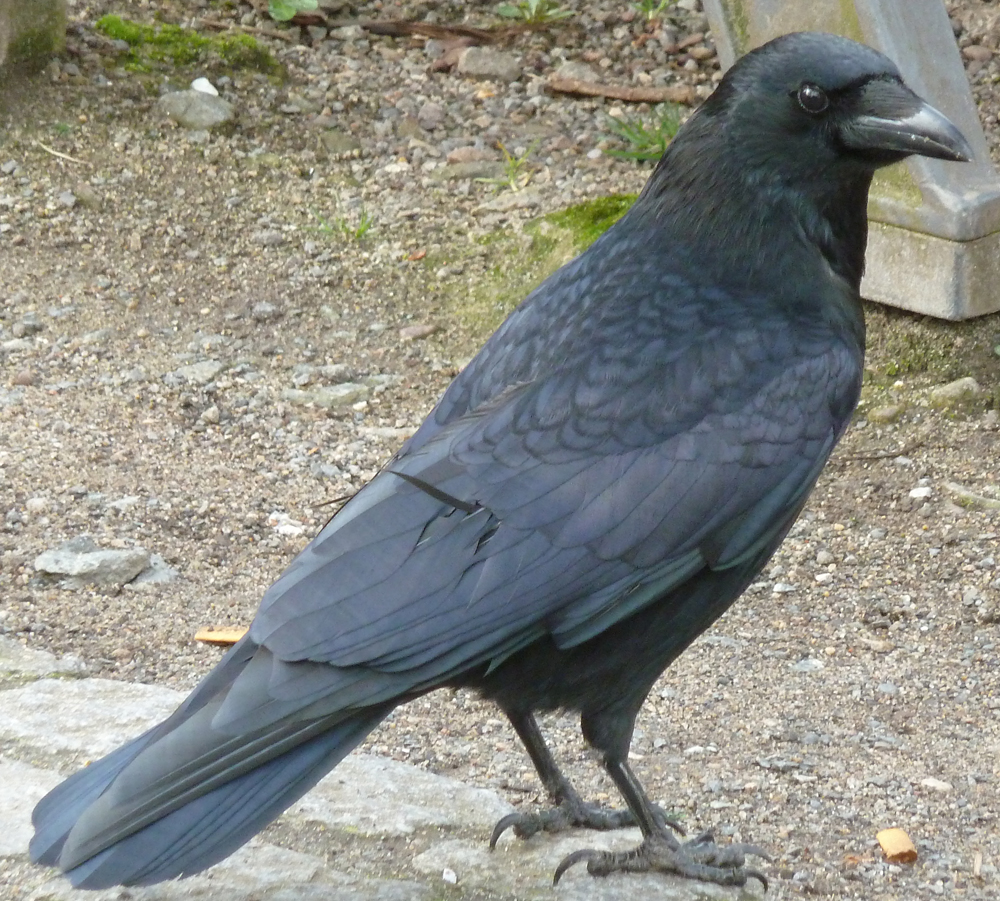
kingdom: Animalia
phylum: Chordata
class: Aves
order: Passeriformes
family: Corvidae
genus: Corvus
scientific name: Corvus corone
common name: Carrion crow
